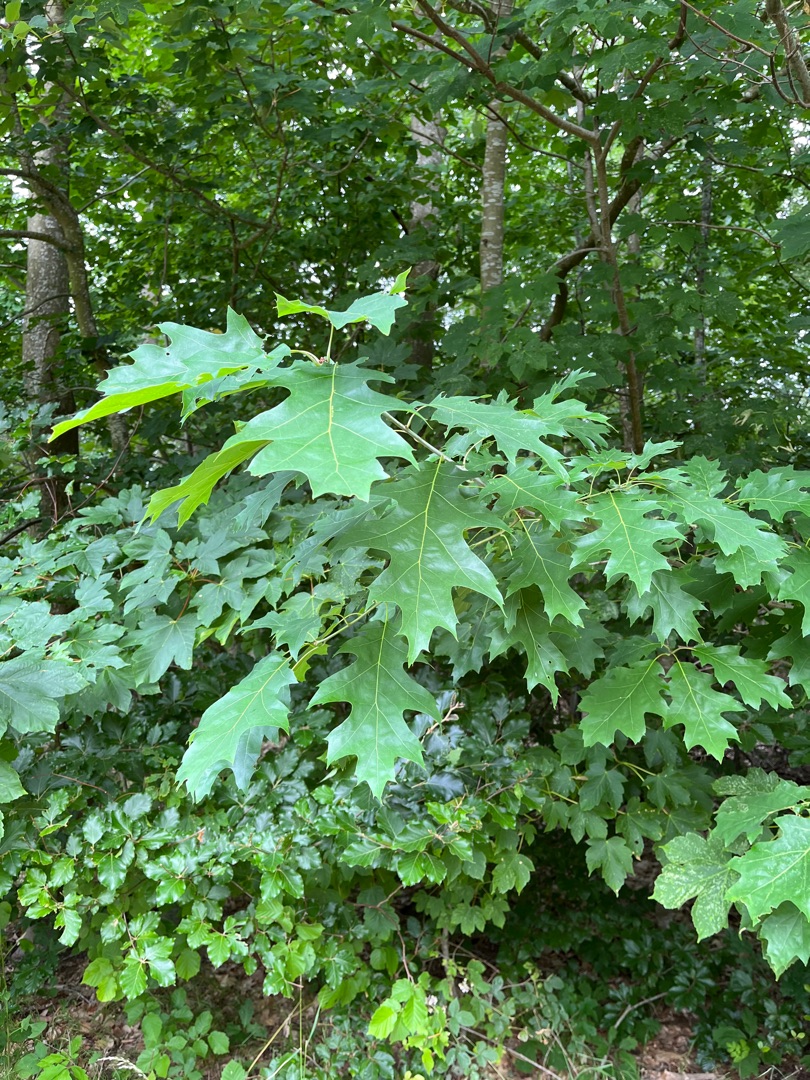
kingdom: Plantae
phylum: Tracheophyta
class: Magnoliopsida
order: Fagales
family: Fagaceae
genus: Quercus
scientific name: Quercus rubra
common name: Rød-eg
